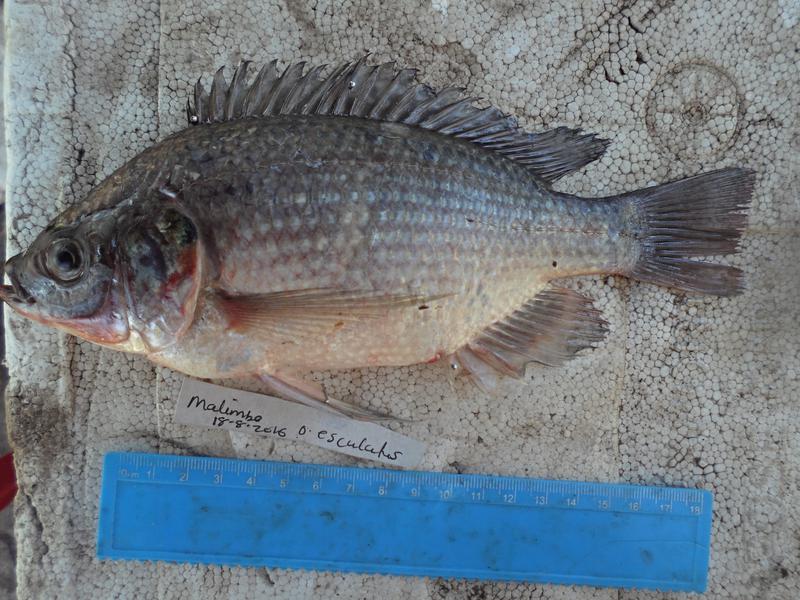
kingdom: Animalia
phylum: Chordata
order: Perciformes
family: Cichlidae
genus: Oreochromis
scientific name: Oreochromis esculentus
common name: Carp
